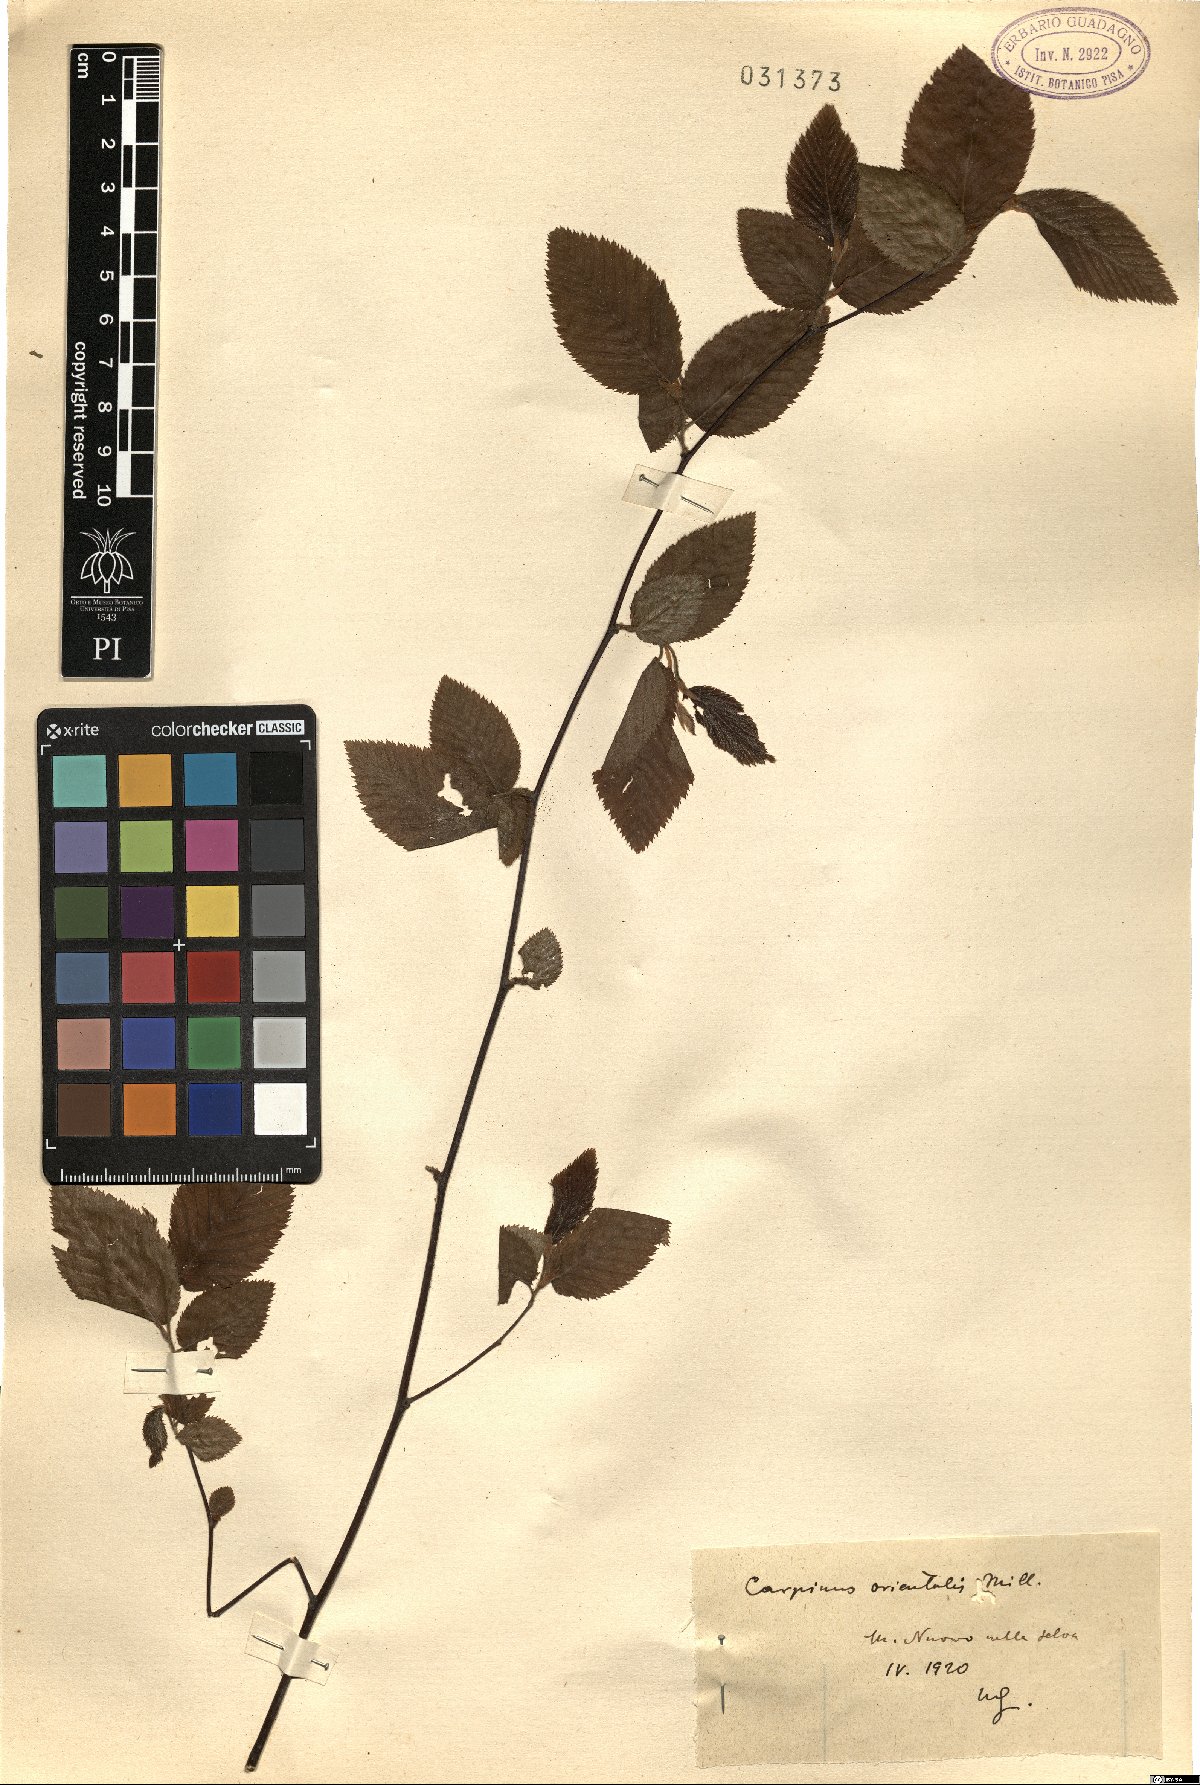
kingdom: Plantae
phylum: Tracheophyta
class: Magnoliopsida
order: Fagales
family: Betulaceae
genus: Carpinus
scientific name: Carpinus orientalis
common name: Eastern hornbeam
